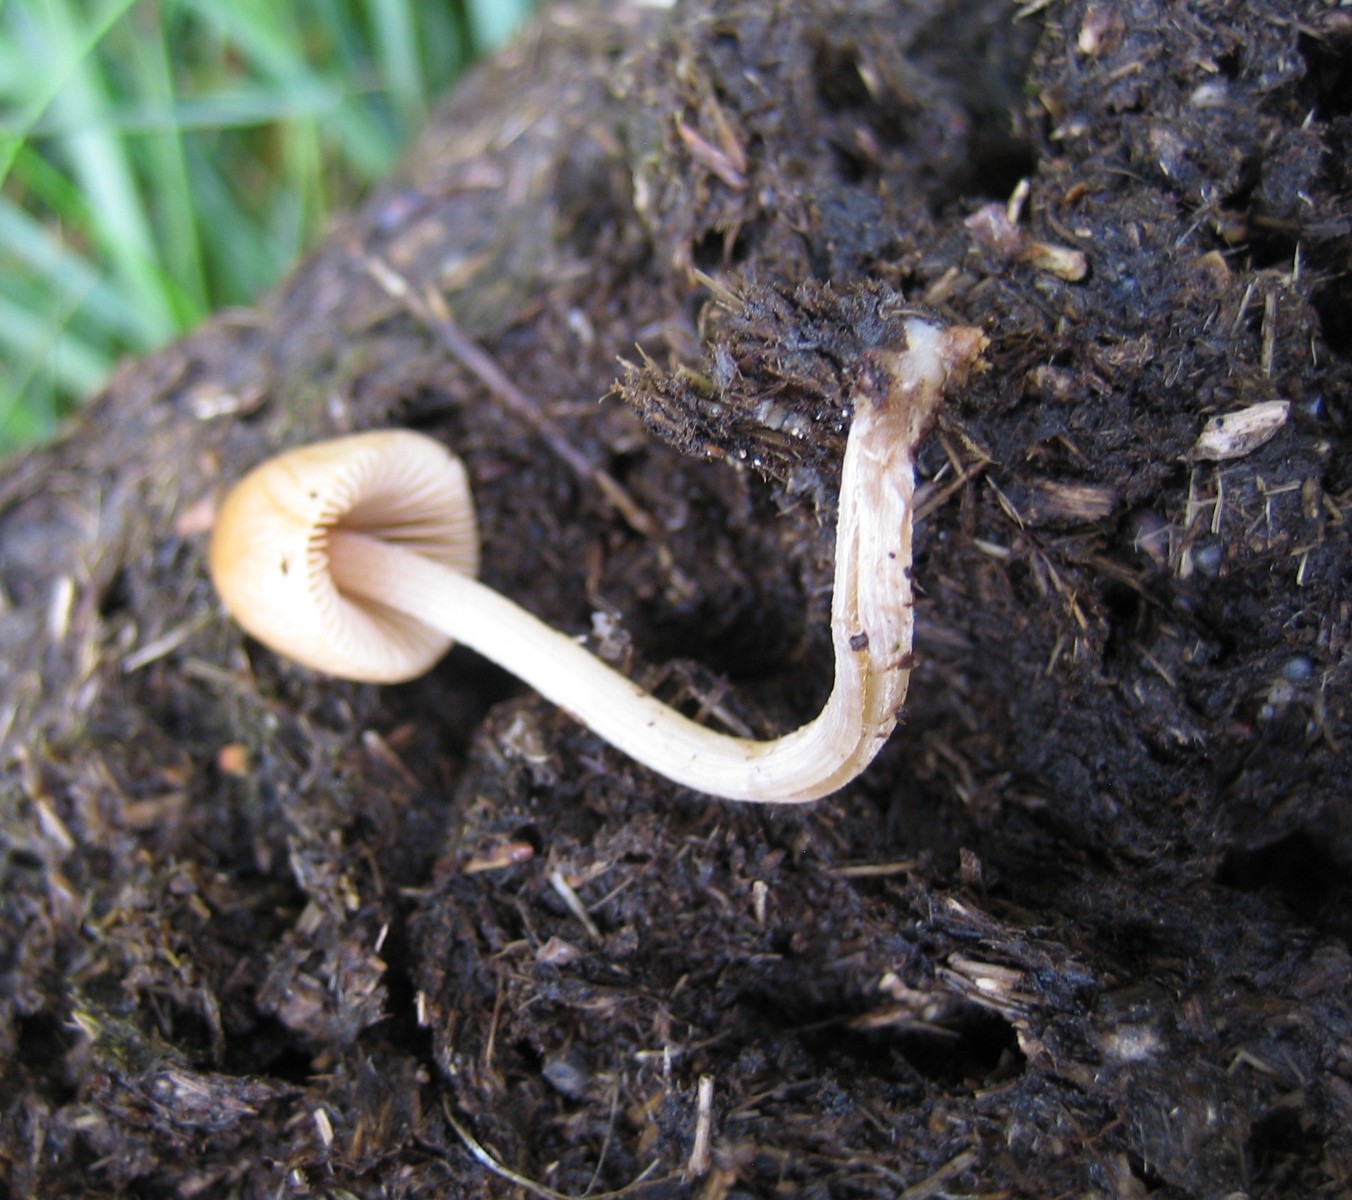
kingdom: Fungi
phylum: Basidiomycota
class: Agaricomycetes
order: Agaricales
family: Bolbitiaceae
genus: Conocybe
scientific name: Conocybe
